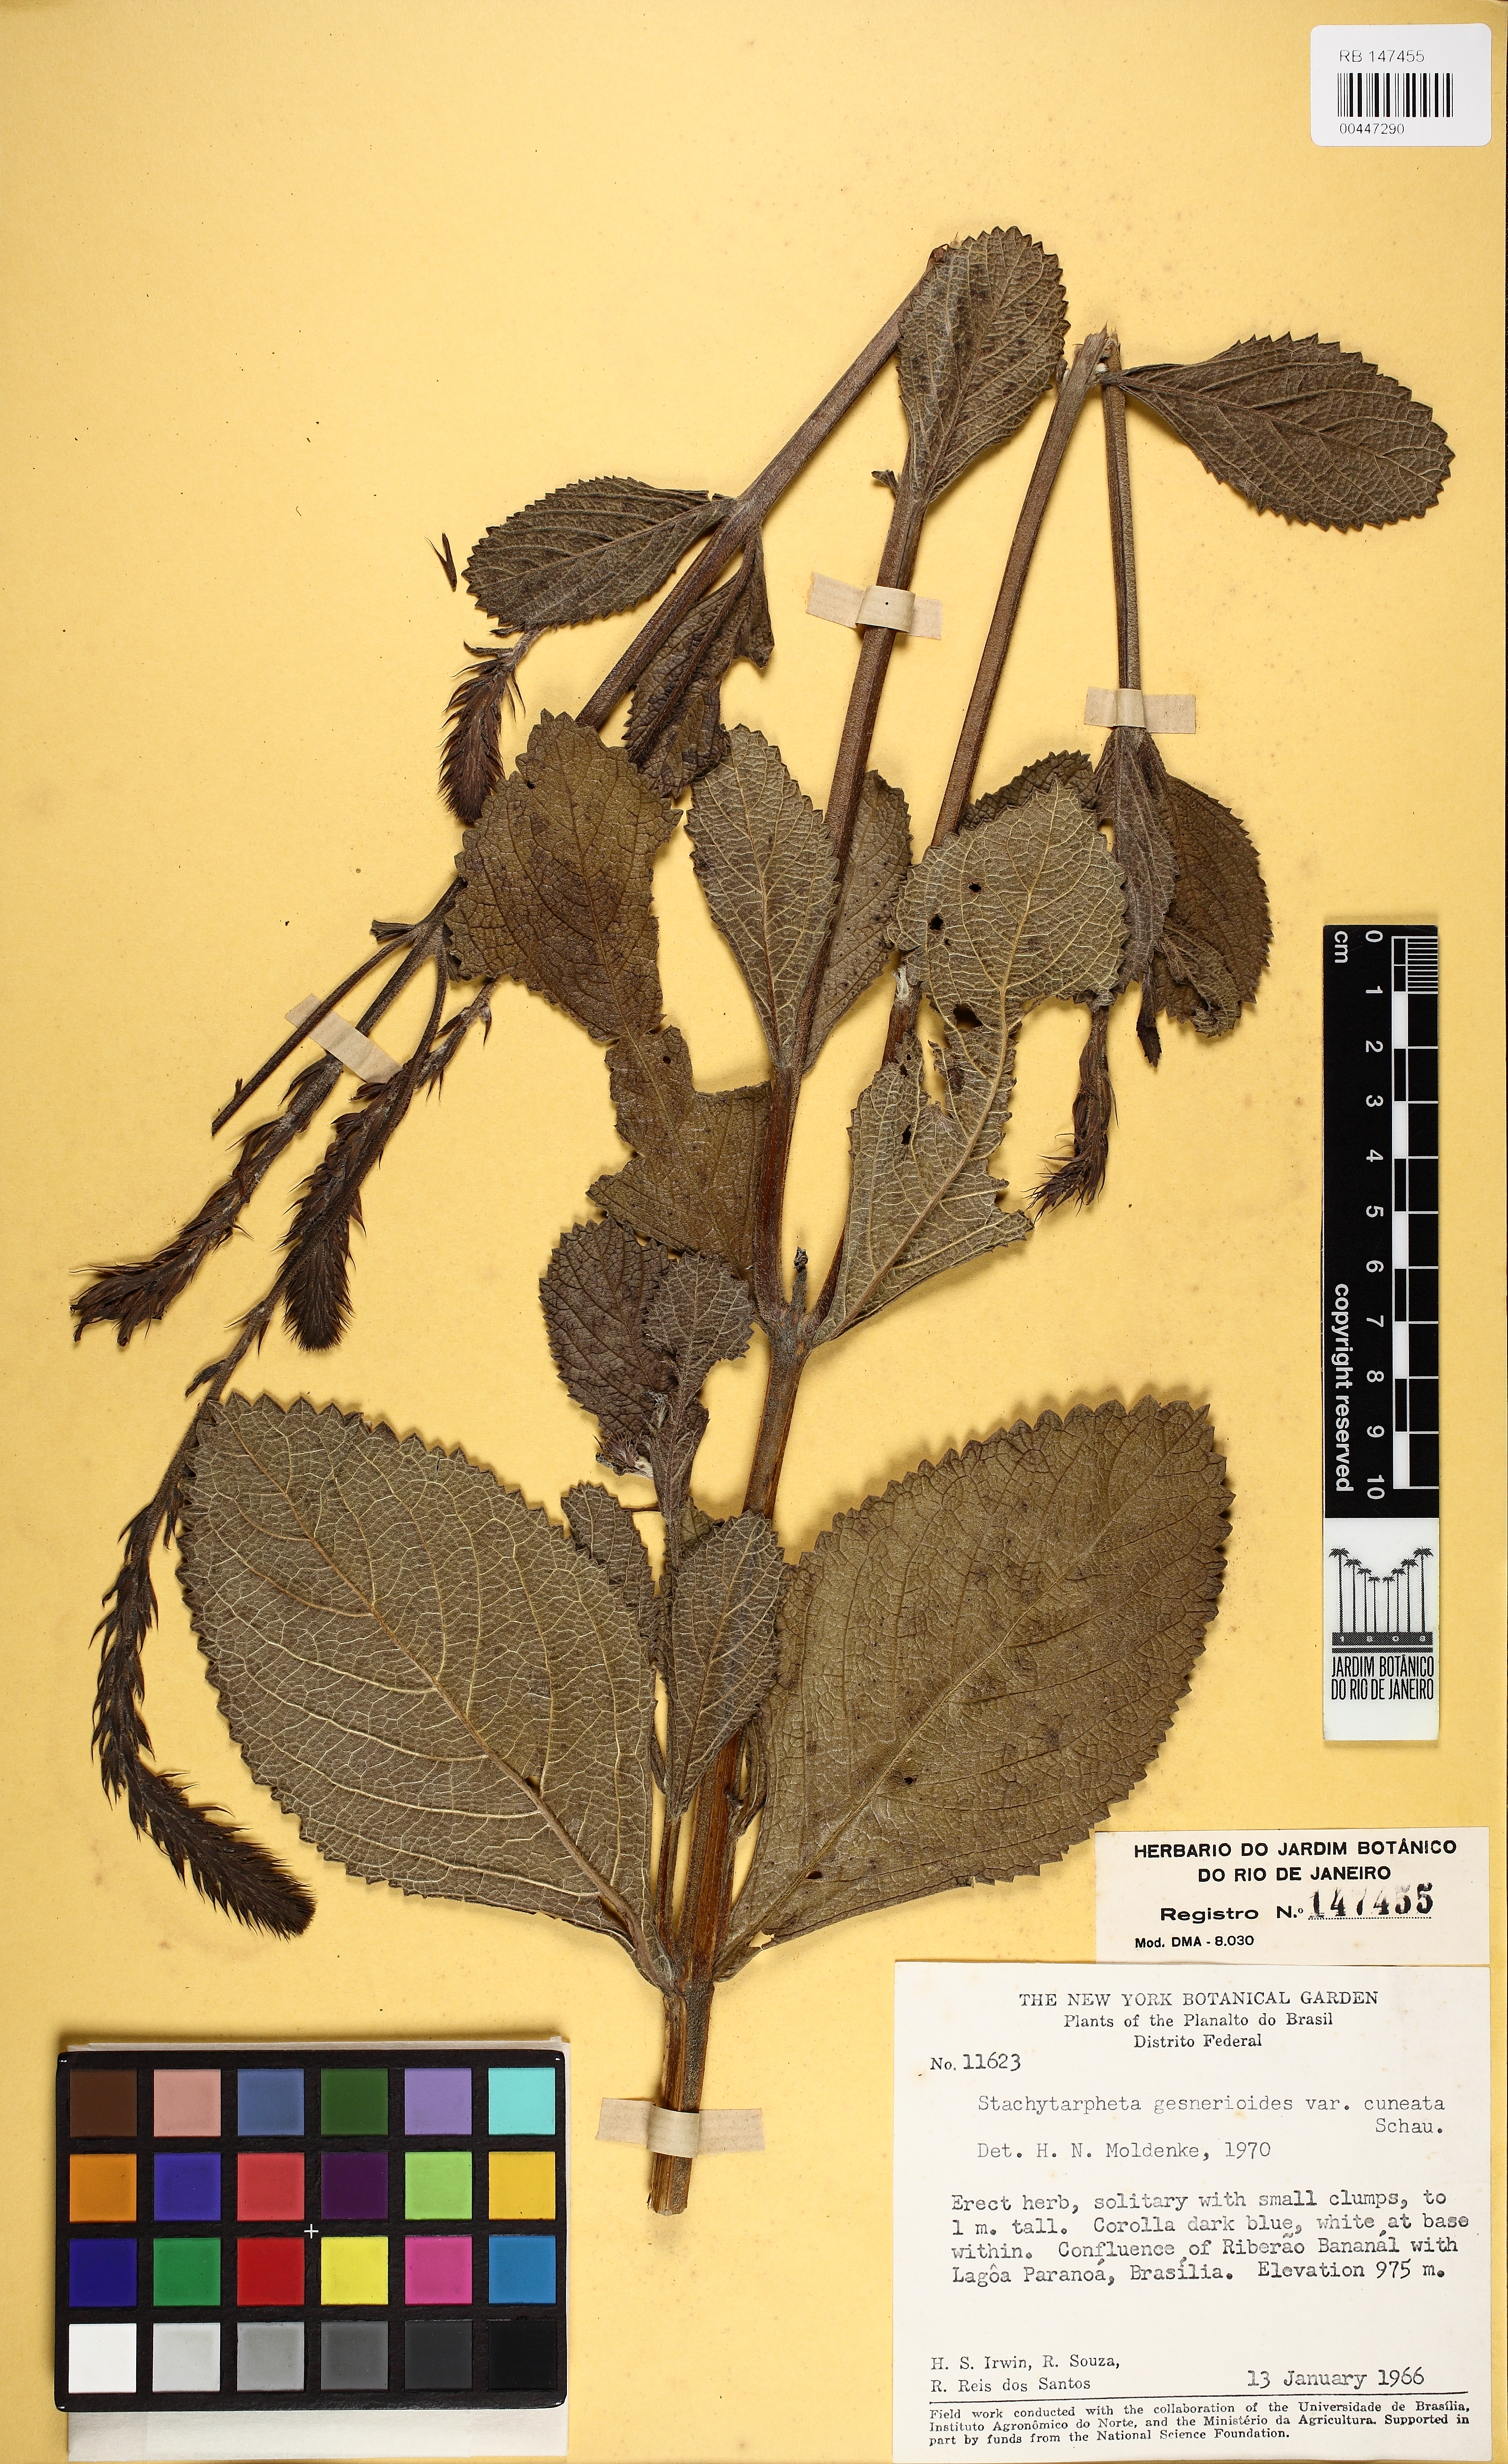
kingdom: Plantae
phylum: Tracheophyta
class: Magnoliopsida
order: Lamiales
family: Verbenaceae
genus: Stachytarpheta
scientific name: Stachytarpheta gesnerioides
